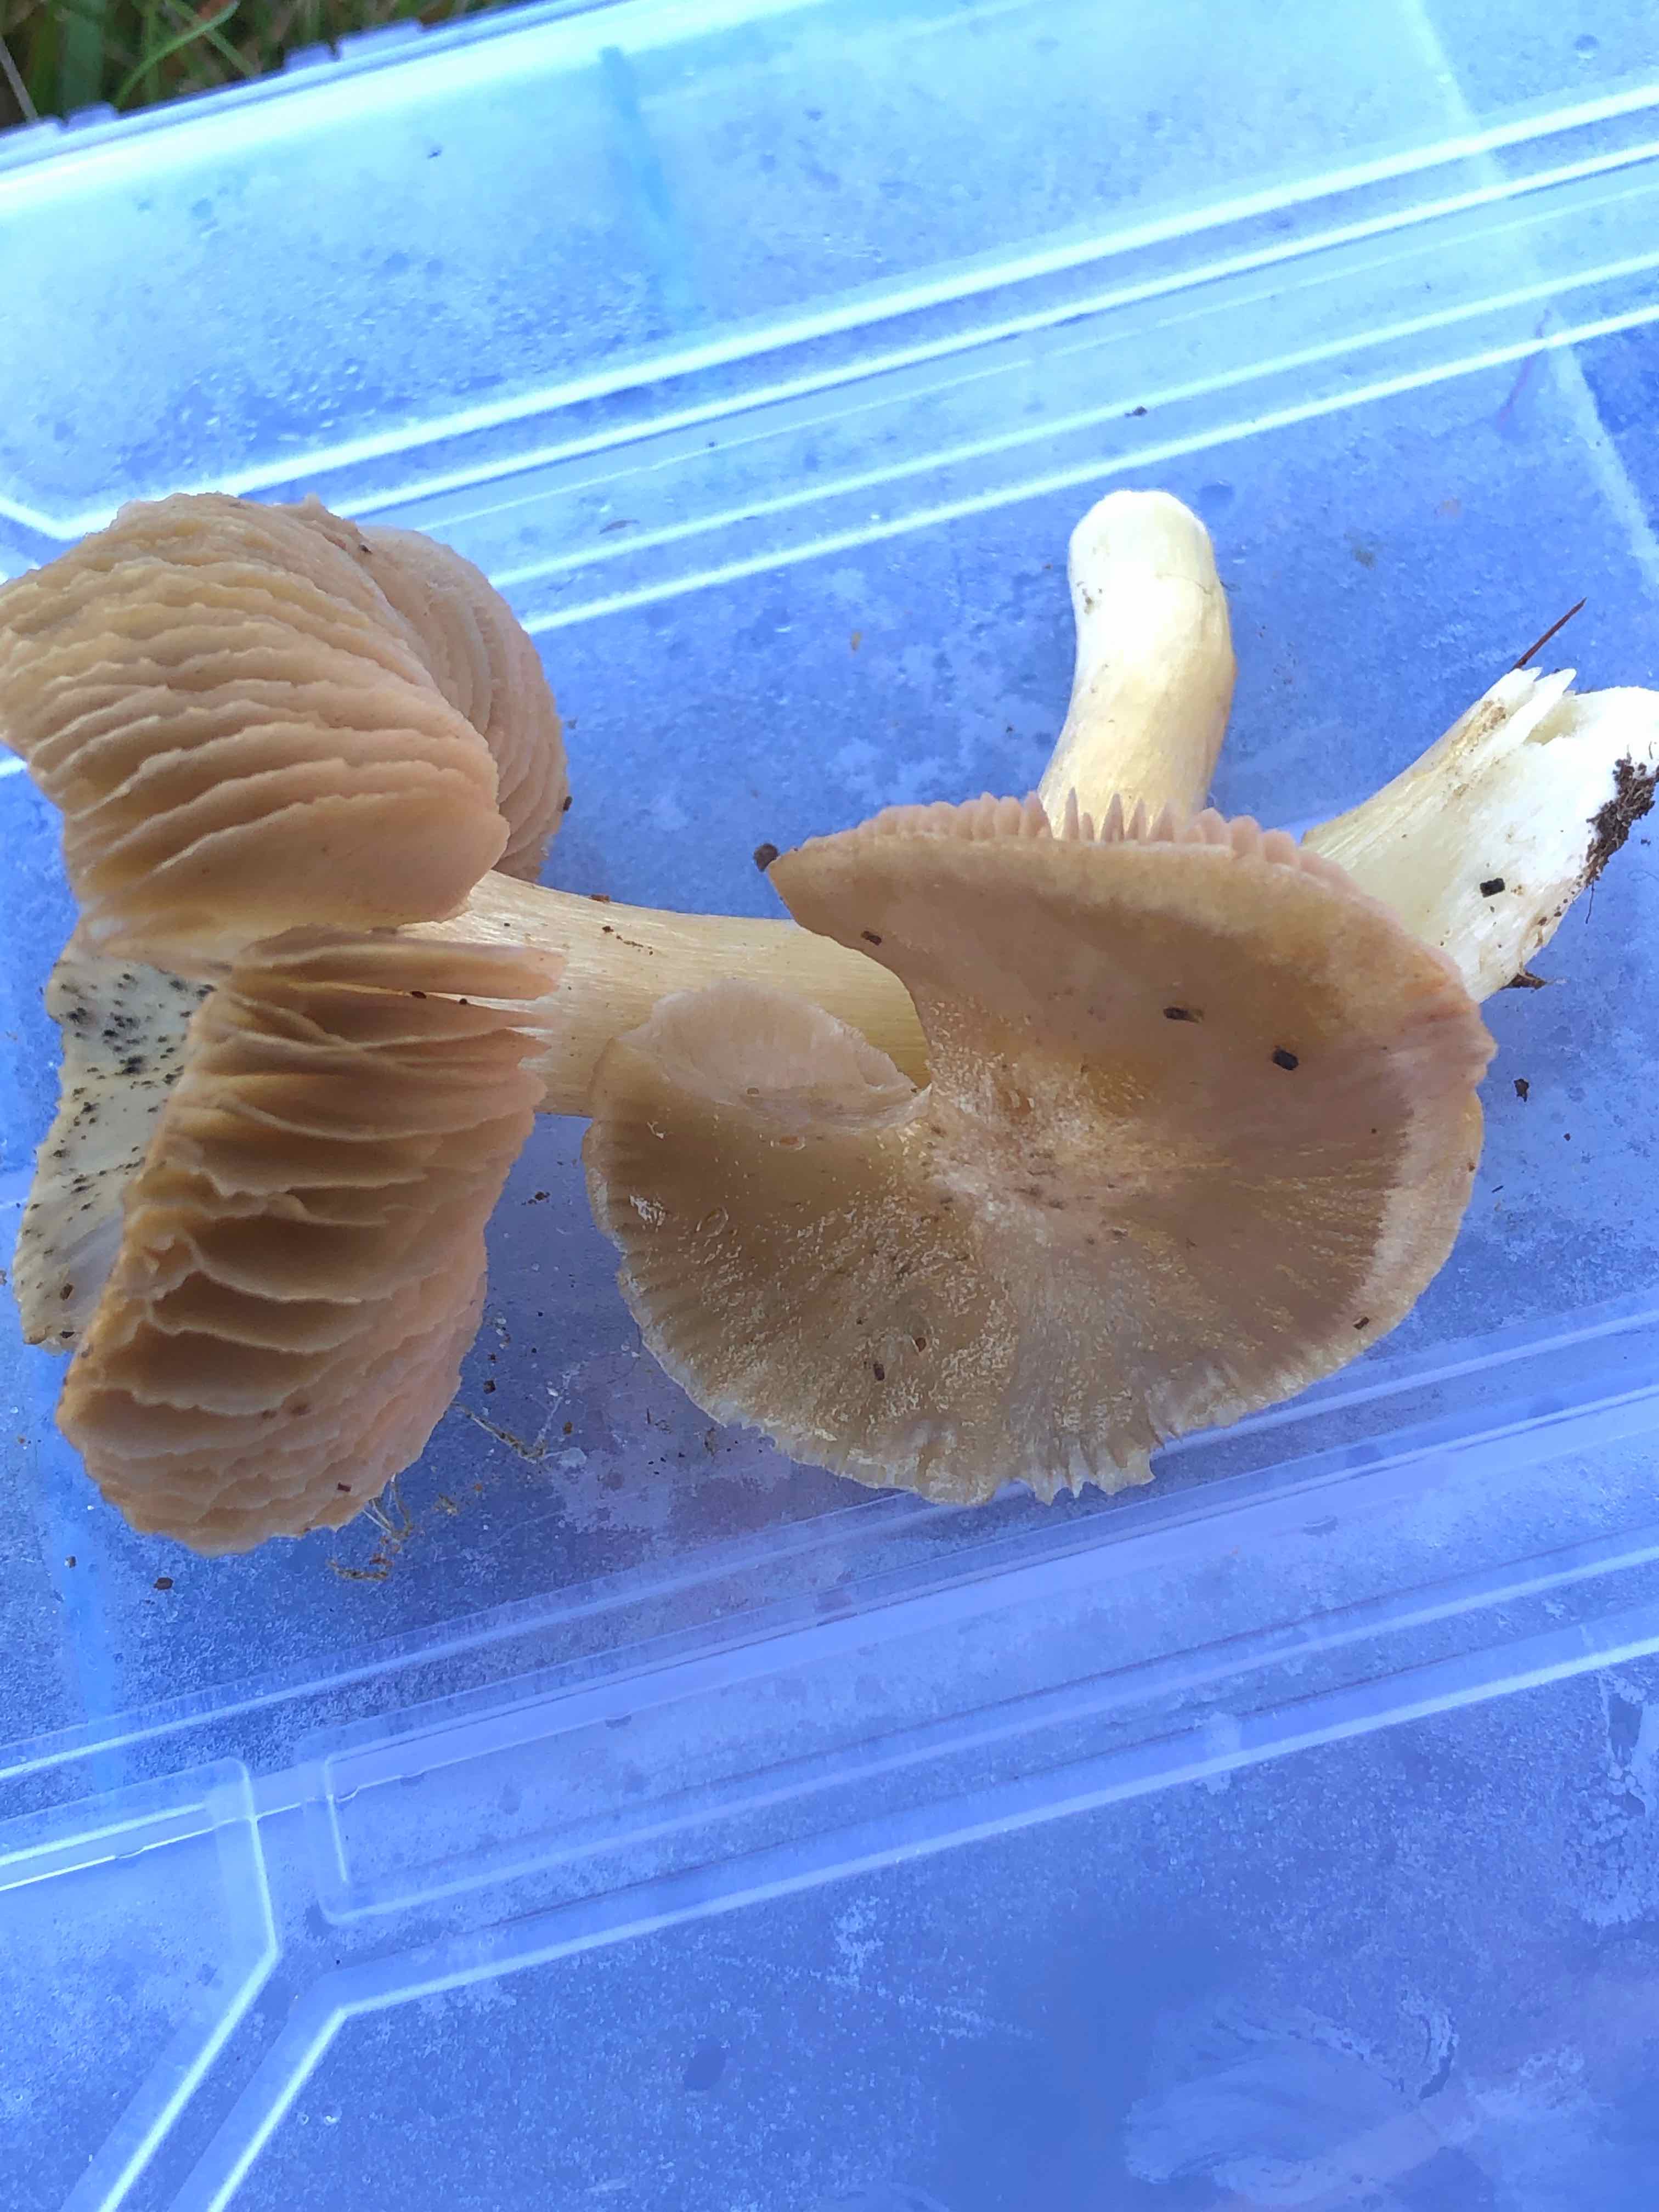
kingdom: Fungi
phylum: Basidiomycota
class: Agaricomycetes
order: Agaricales
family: Entolomataceae
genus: Entoloma
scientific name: Entoloma prunuloides
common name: mel-rødblad
